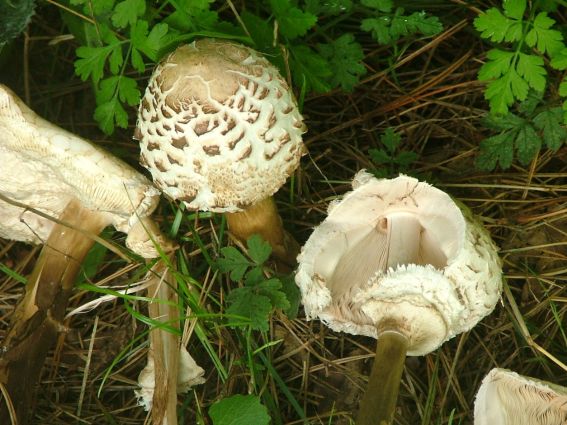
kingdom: Fungi
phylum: Basidiomycota
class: Agaricomycetes
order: Agaricales
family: Agaricaceae
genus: Chlorophyllum
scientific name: Chlorophyllum rhacodes
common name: ægte rabarberhat
